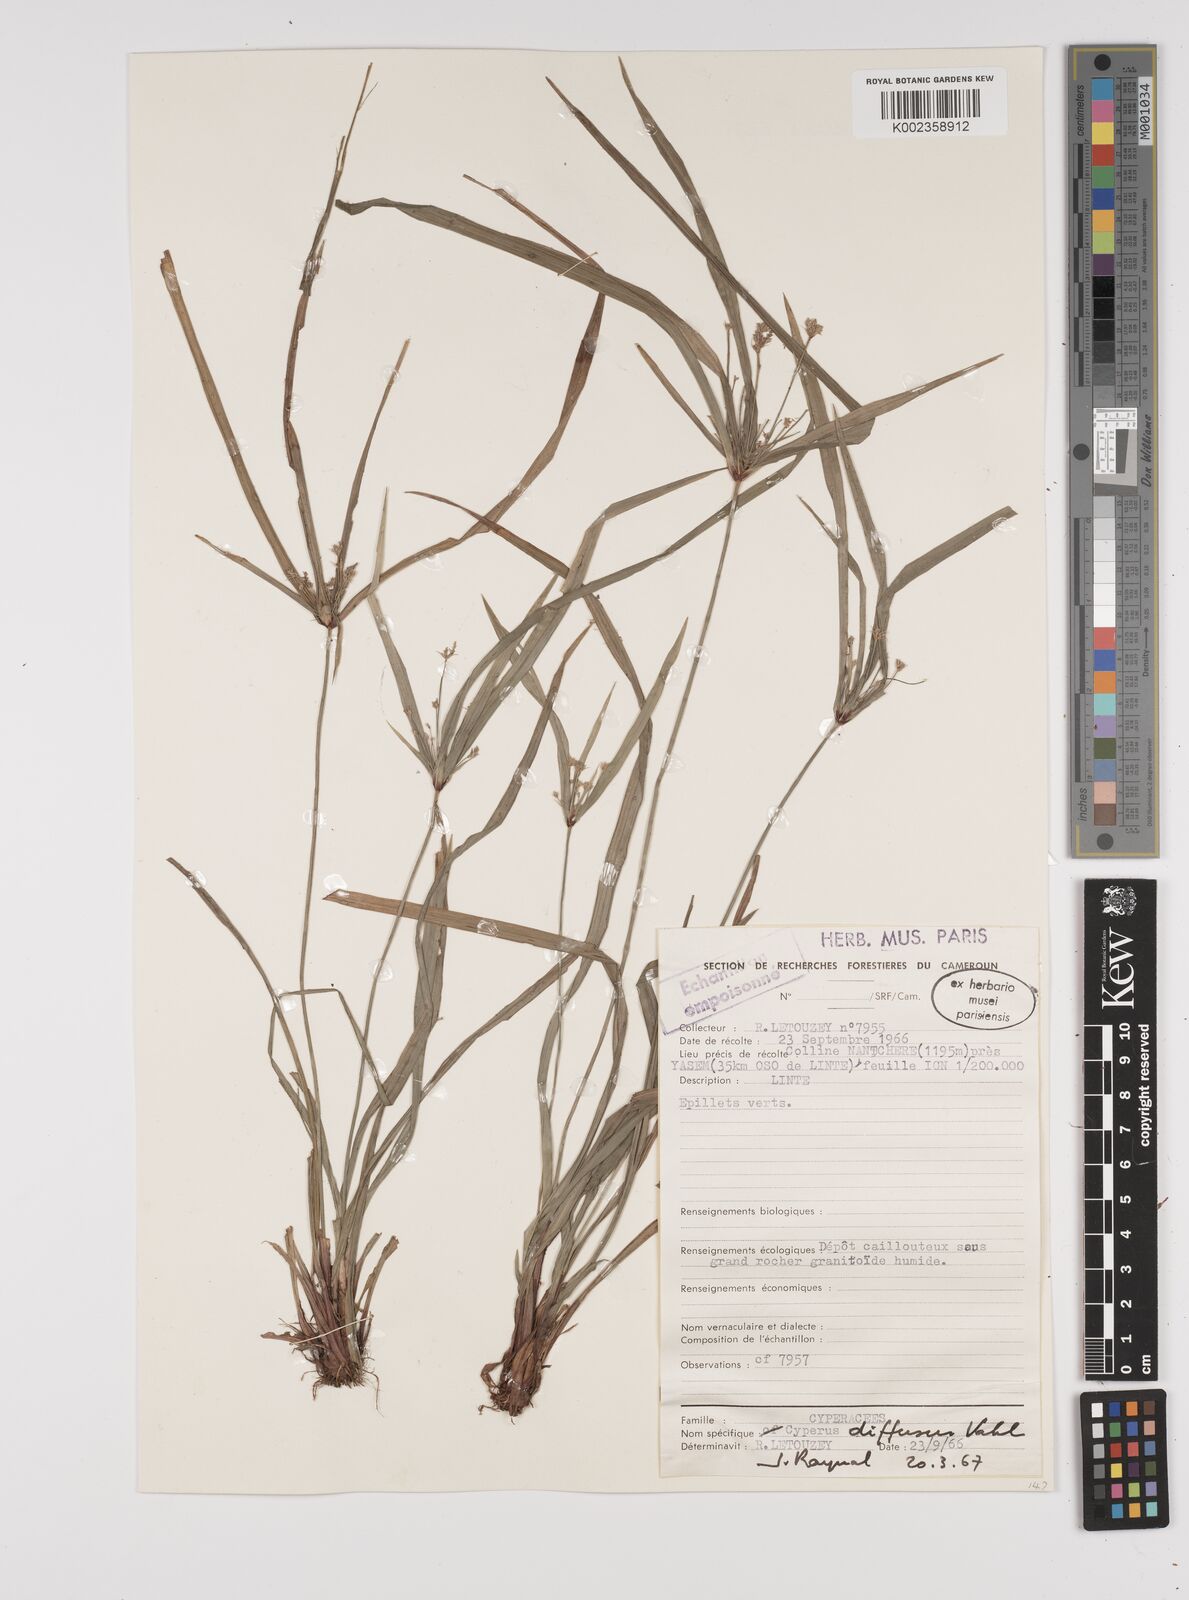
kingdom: Plantae
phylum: Tracheophyta
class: Liliopsida
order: Poales
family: Cyperaceae
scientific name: Cyperaceae
